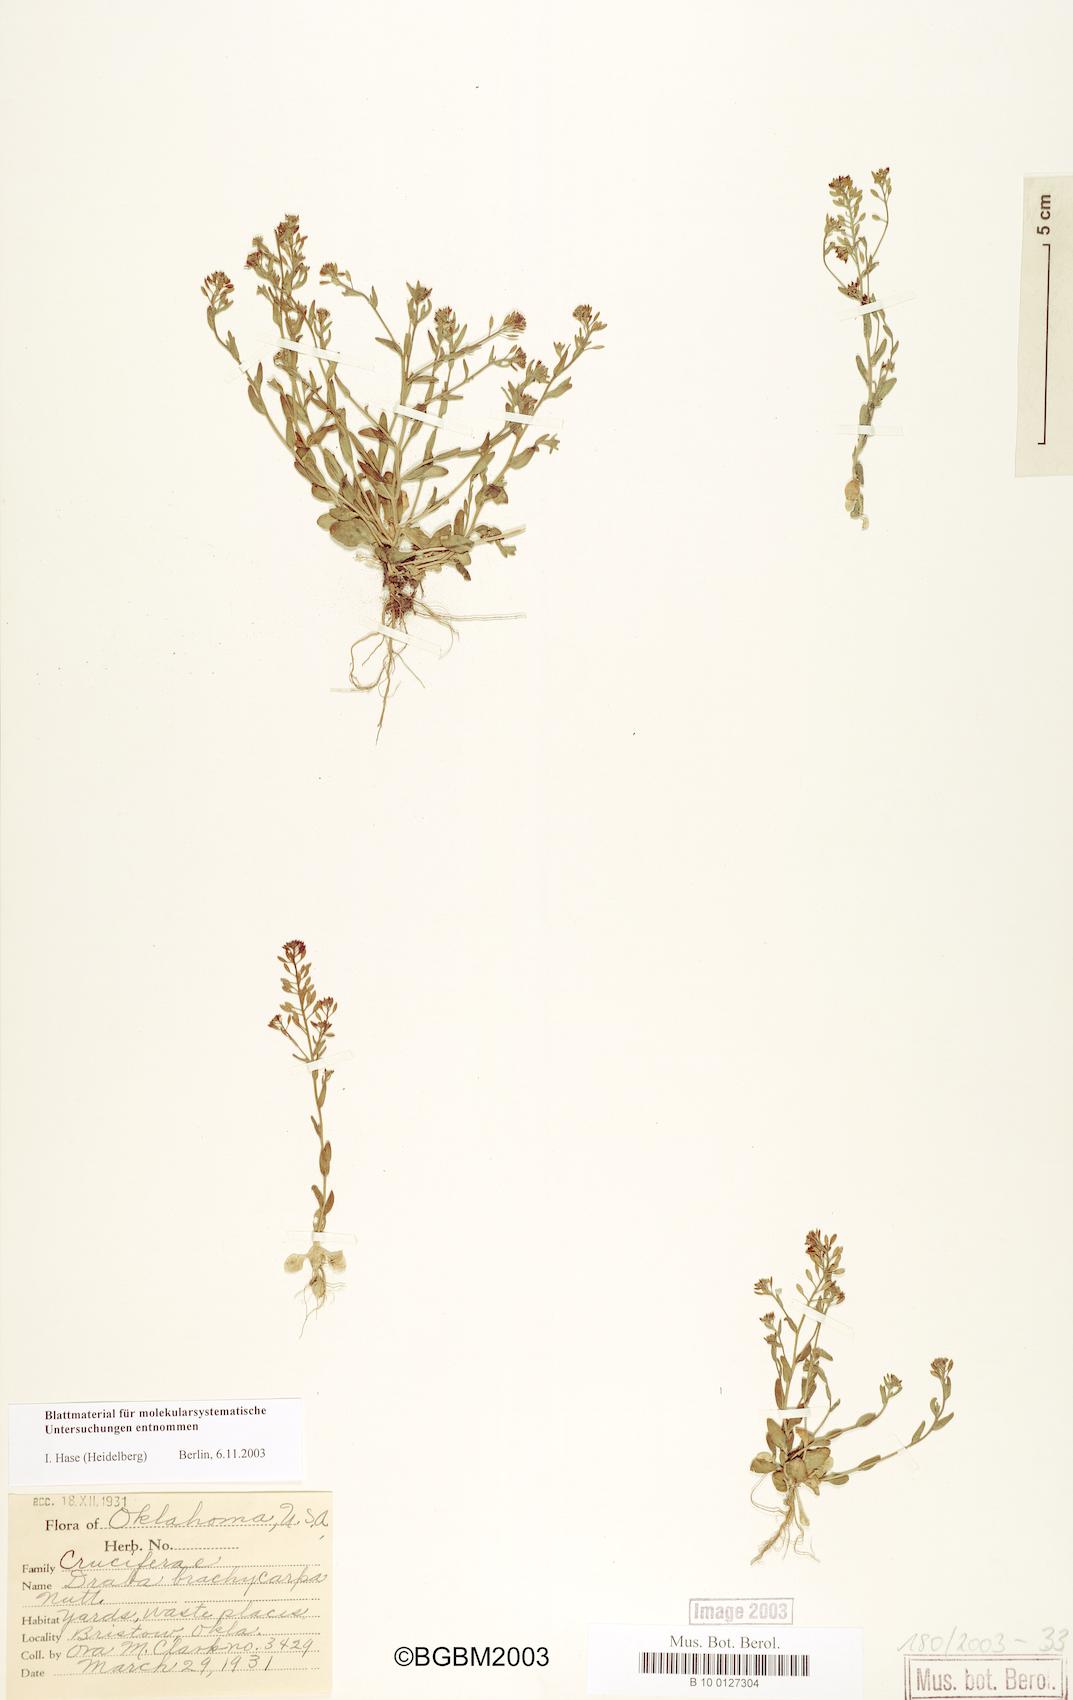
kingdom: Plantae
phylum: Tracheophyta
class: Magnoliopsida
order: Brassicales
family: Brassicaceae
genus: Draba
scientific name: Draba brachycarpa
